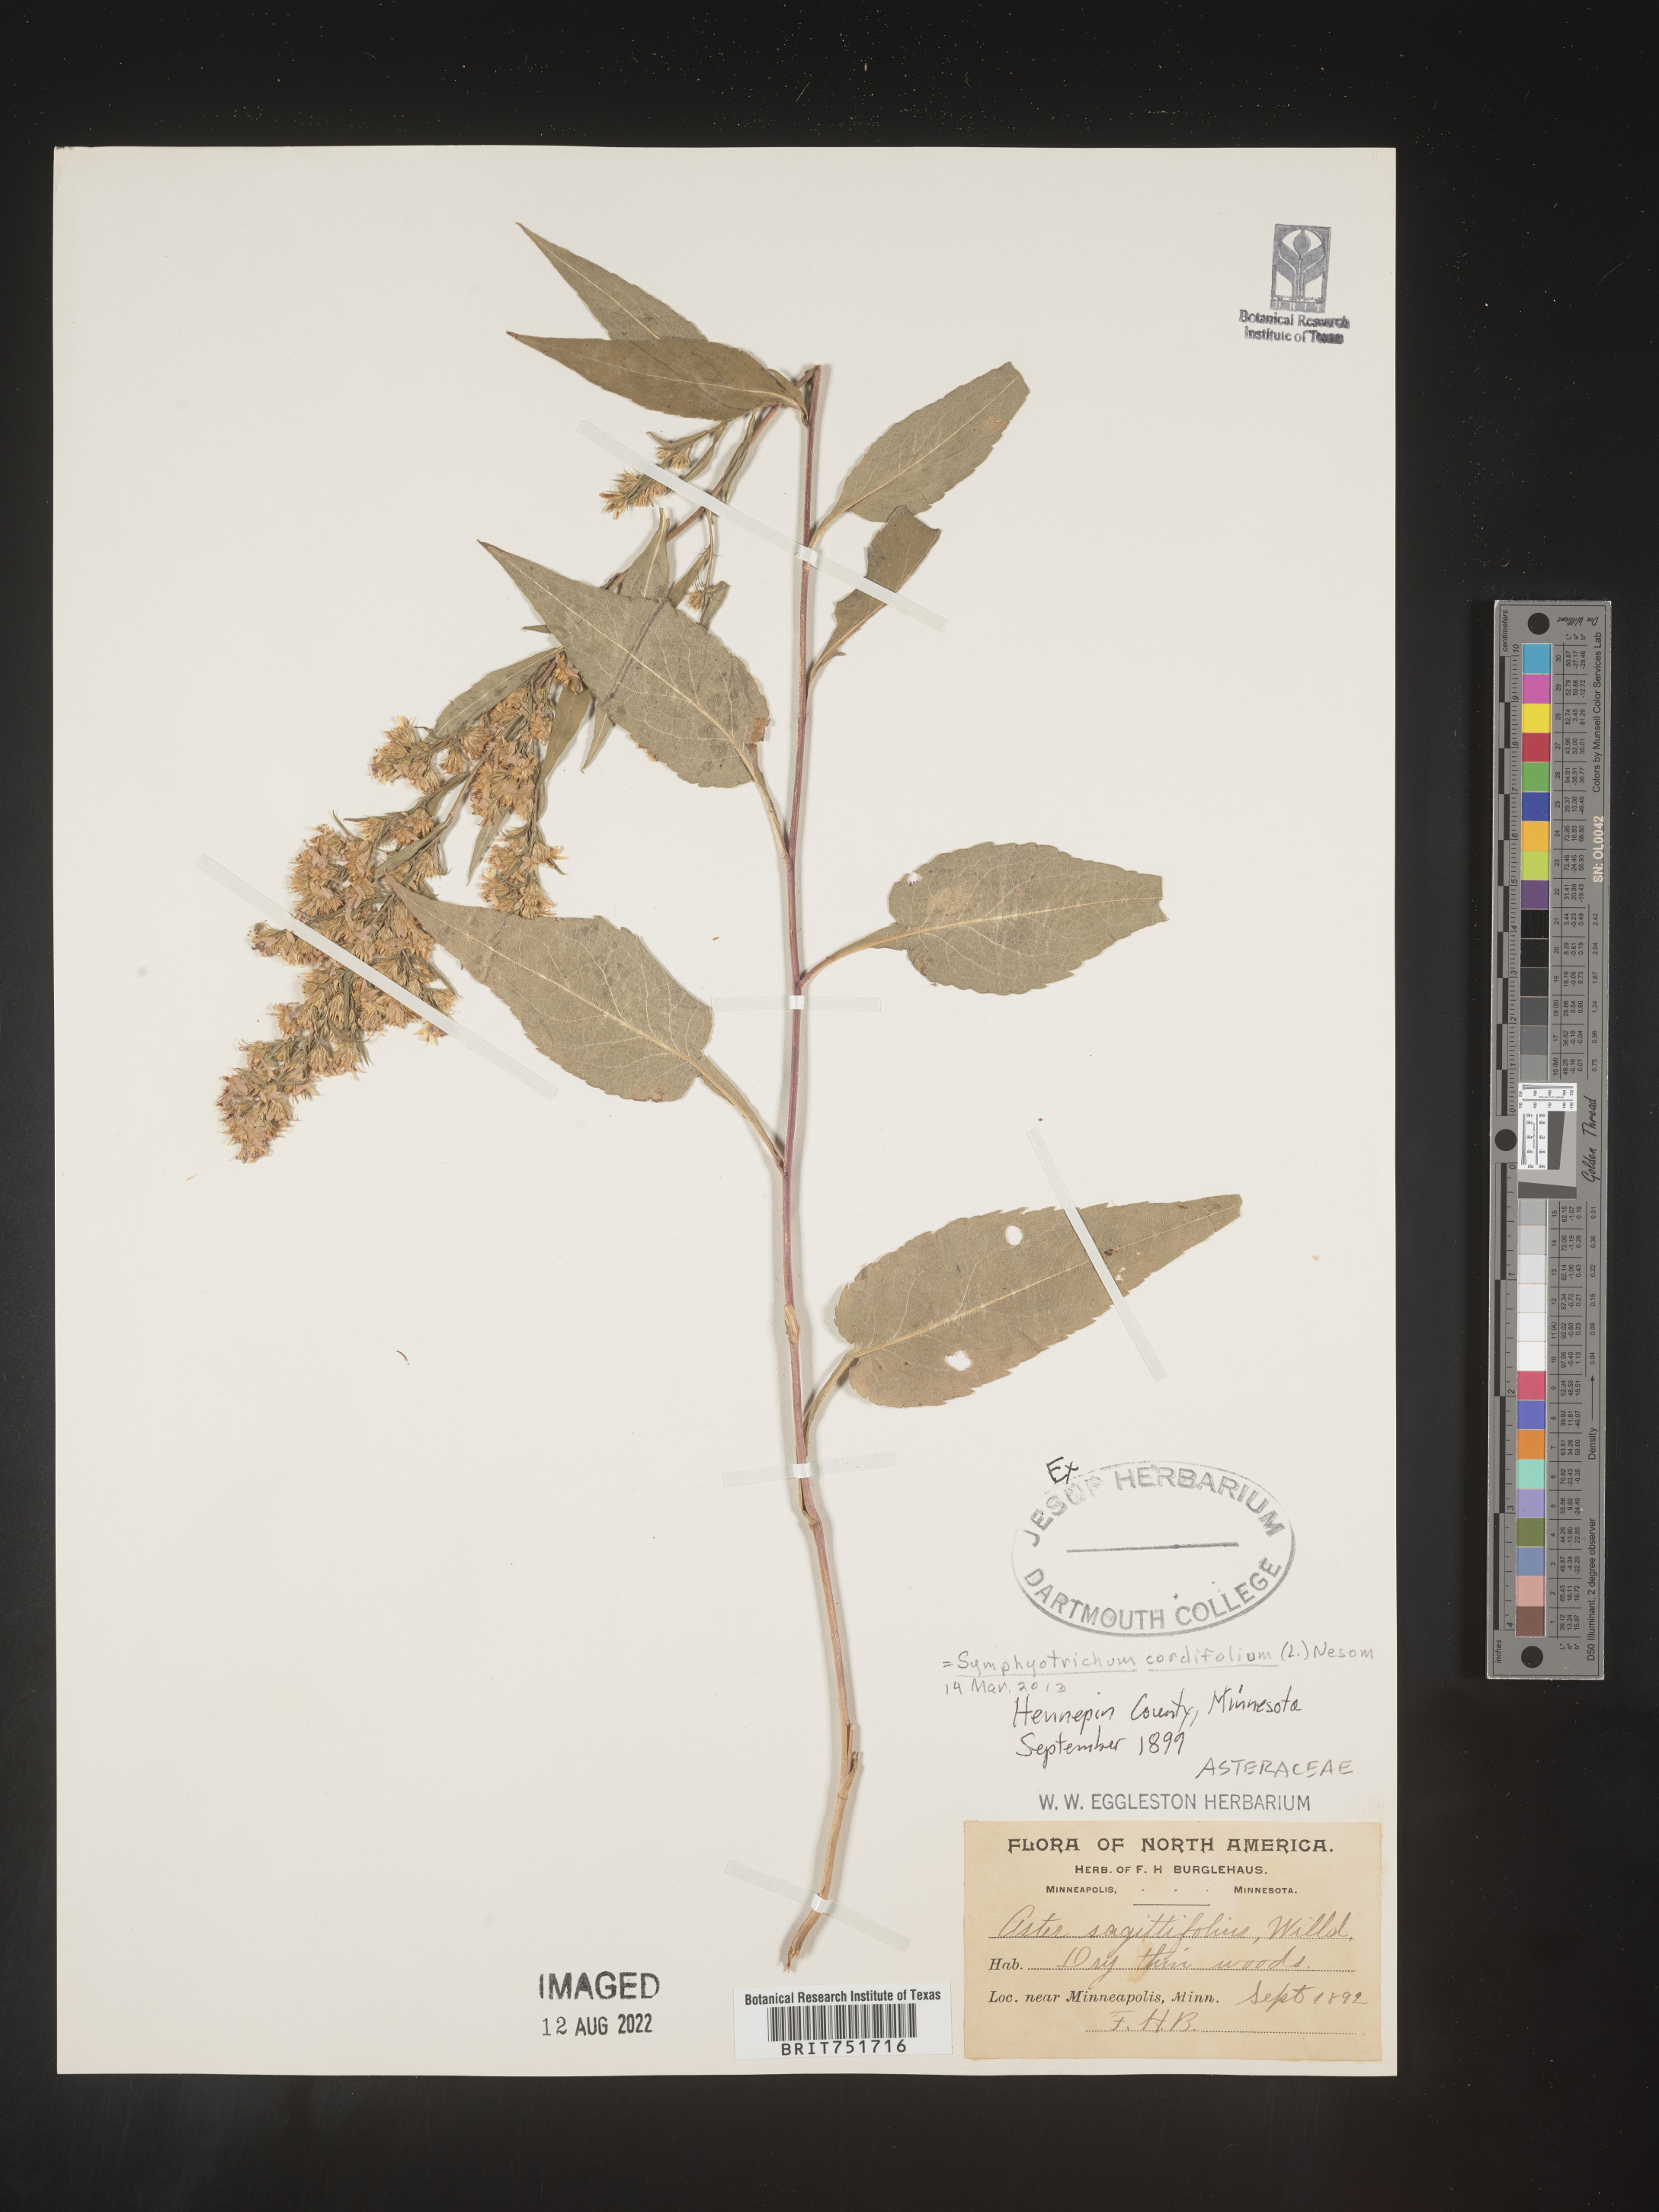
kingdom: Plantae
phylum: Tracheophyta
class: Magnoliopsida
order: Asterales
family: Asteraceae
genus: Symphyotrichum
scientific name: Symphyotrichum cordifolium
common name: Beeweed
